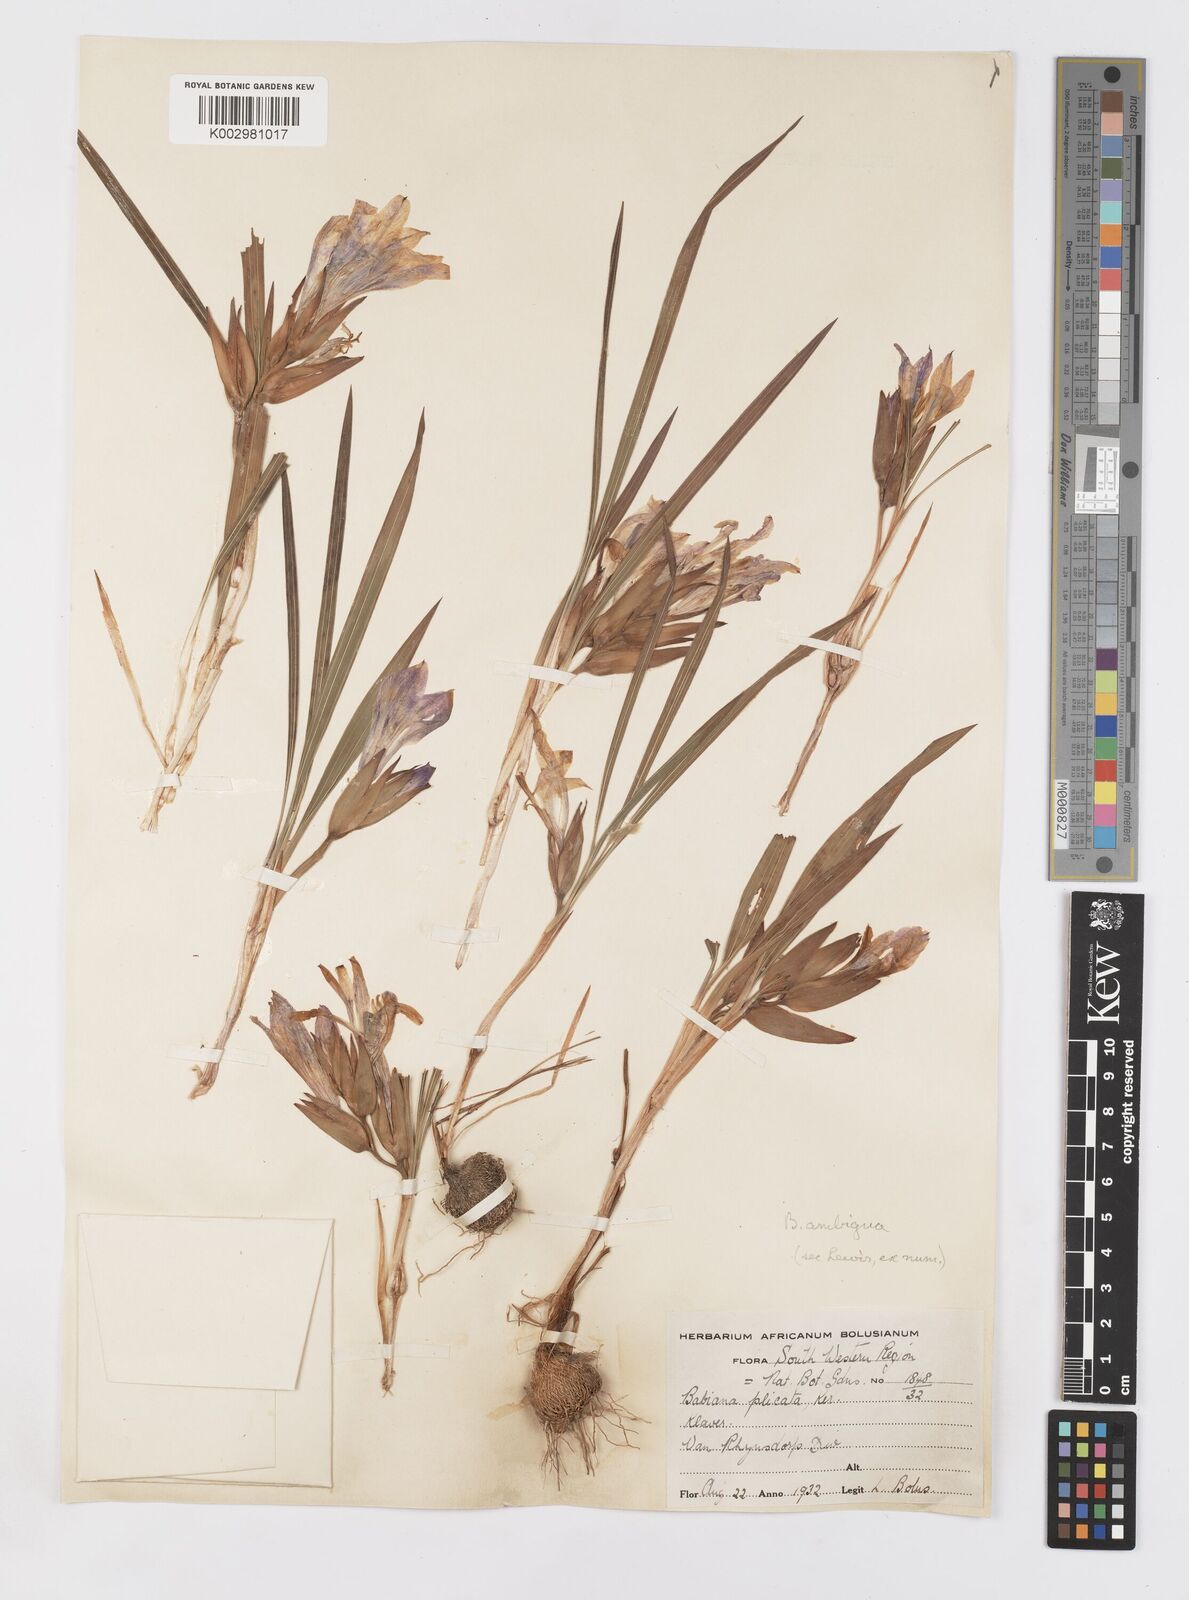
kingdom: Plantae
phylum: Tracheophyta
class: Liliopsida
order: Asparagales
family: Iridaceae
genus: Babiana
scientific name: Babiana ambigua
